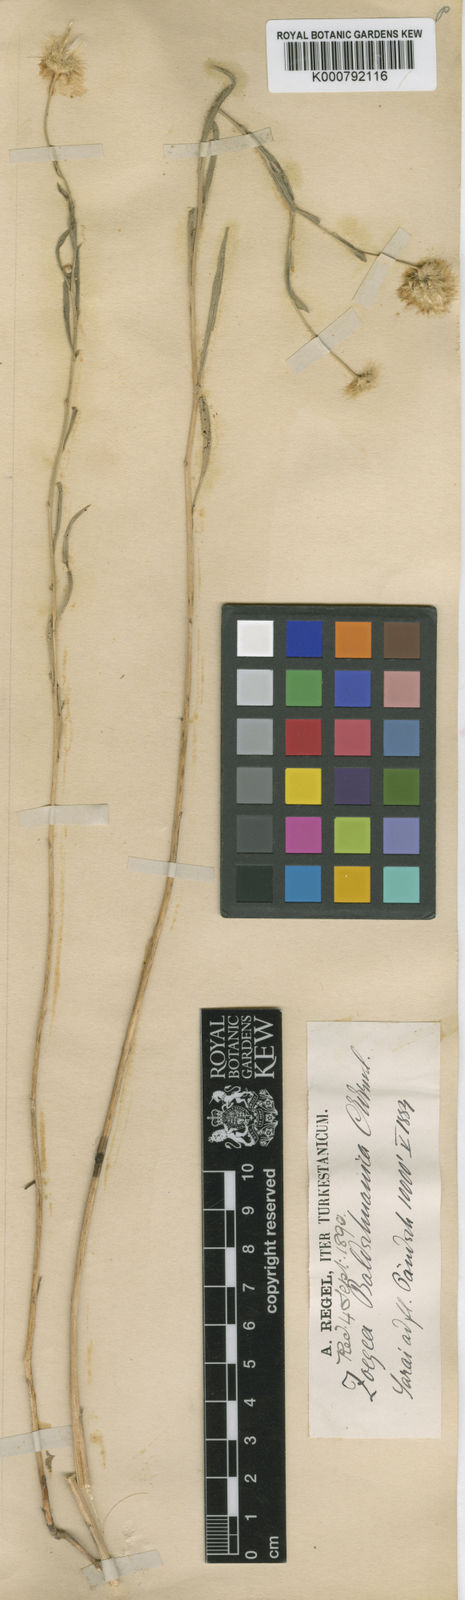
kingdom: Plantae
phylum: Tracheophyta
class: Magnoliopsida
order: Asterales
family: Asteraceae
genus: Zoegea
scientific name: Zoegea crinita
